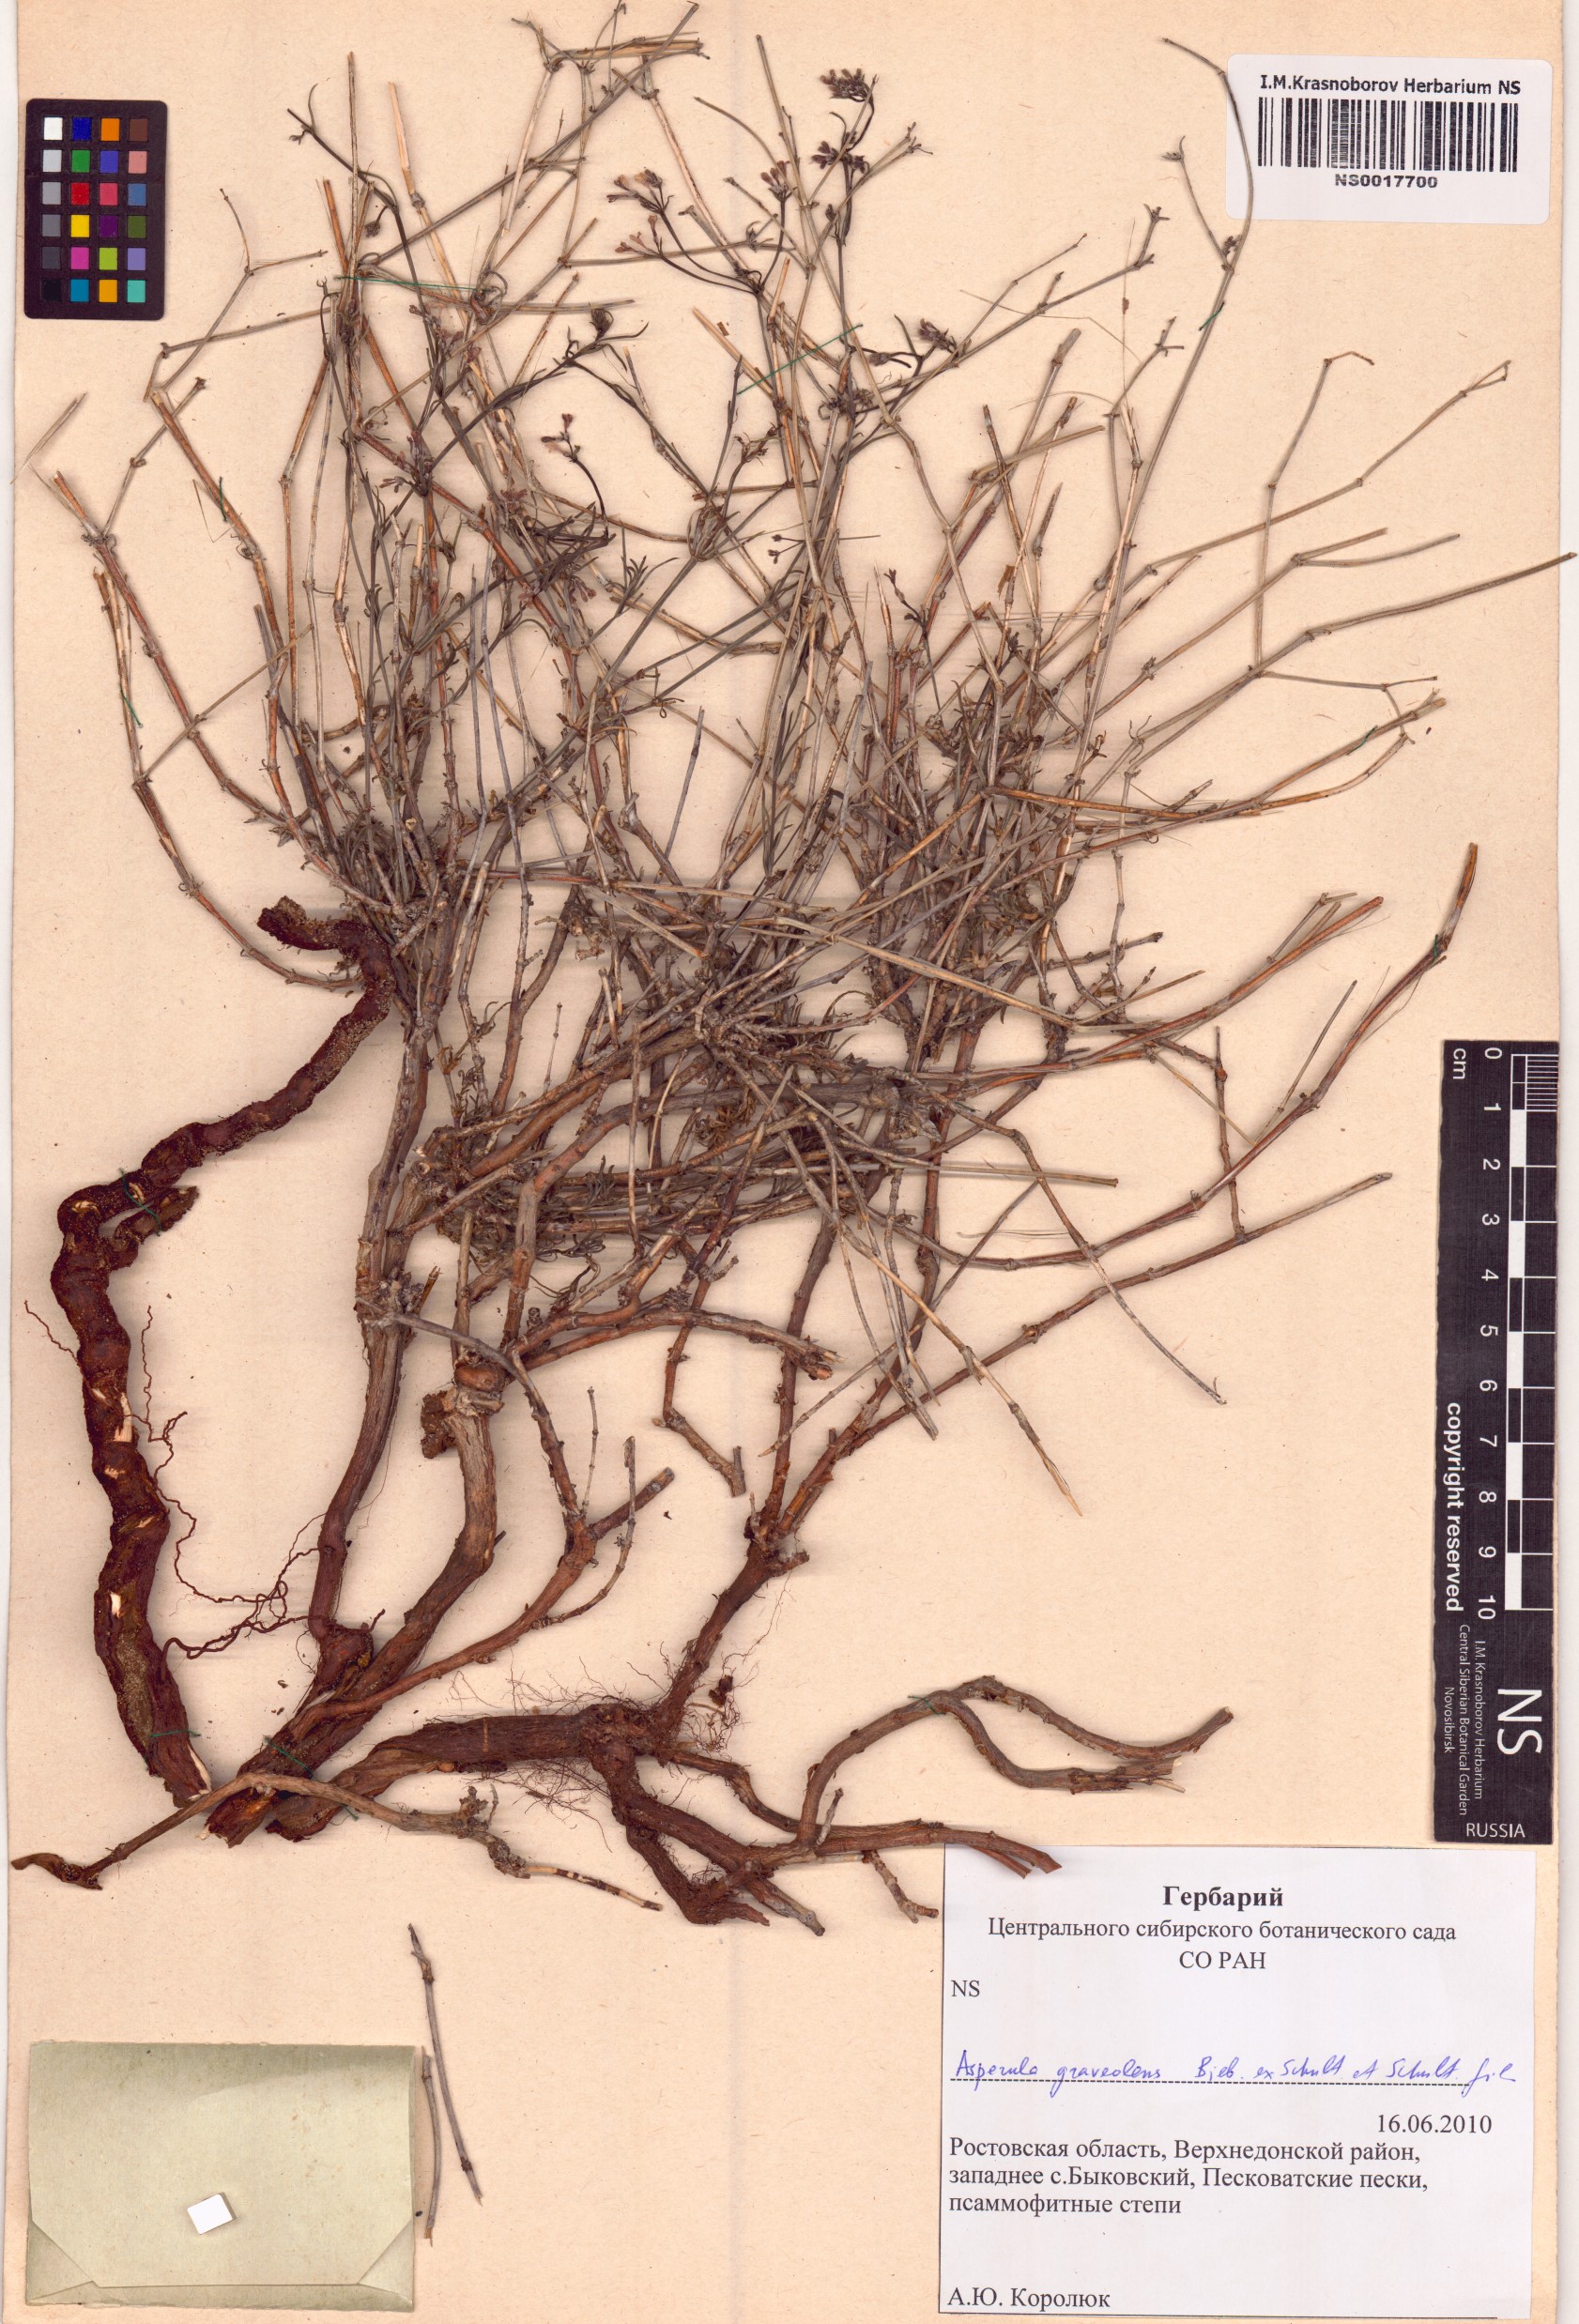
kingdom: Plantae
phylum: Tracheophyta
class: Magnoliopsida
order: Gentianales
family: Rubiaceae
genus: Cynanchica
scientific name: Cynanchica graveolens
